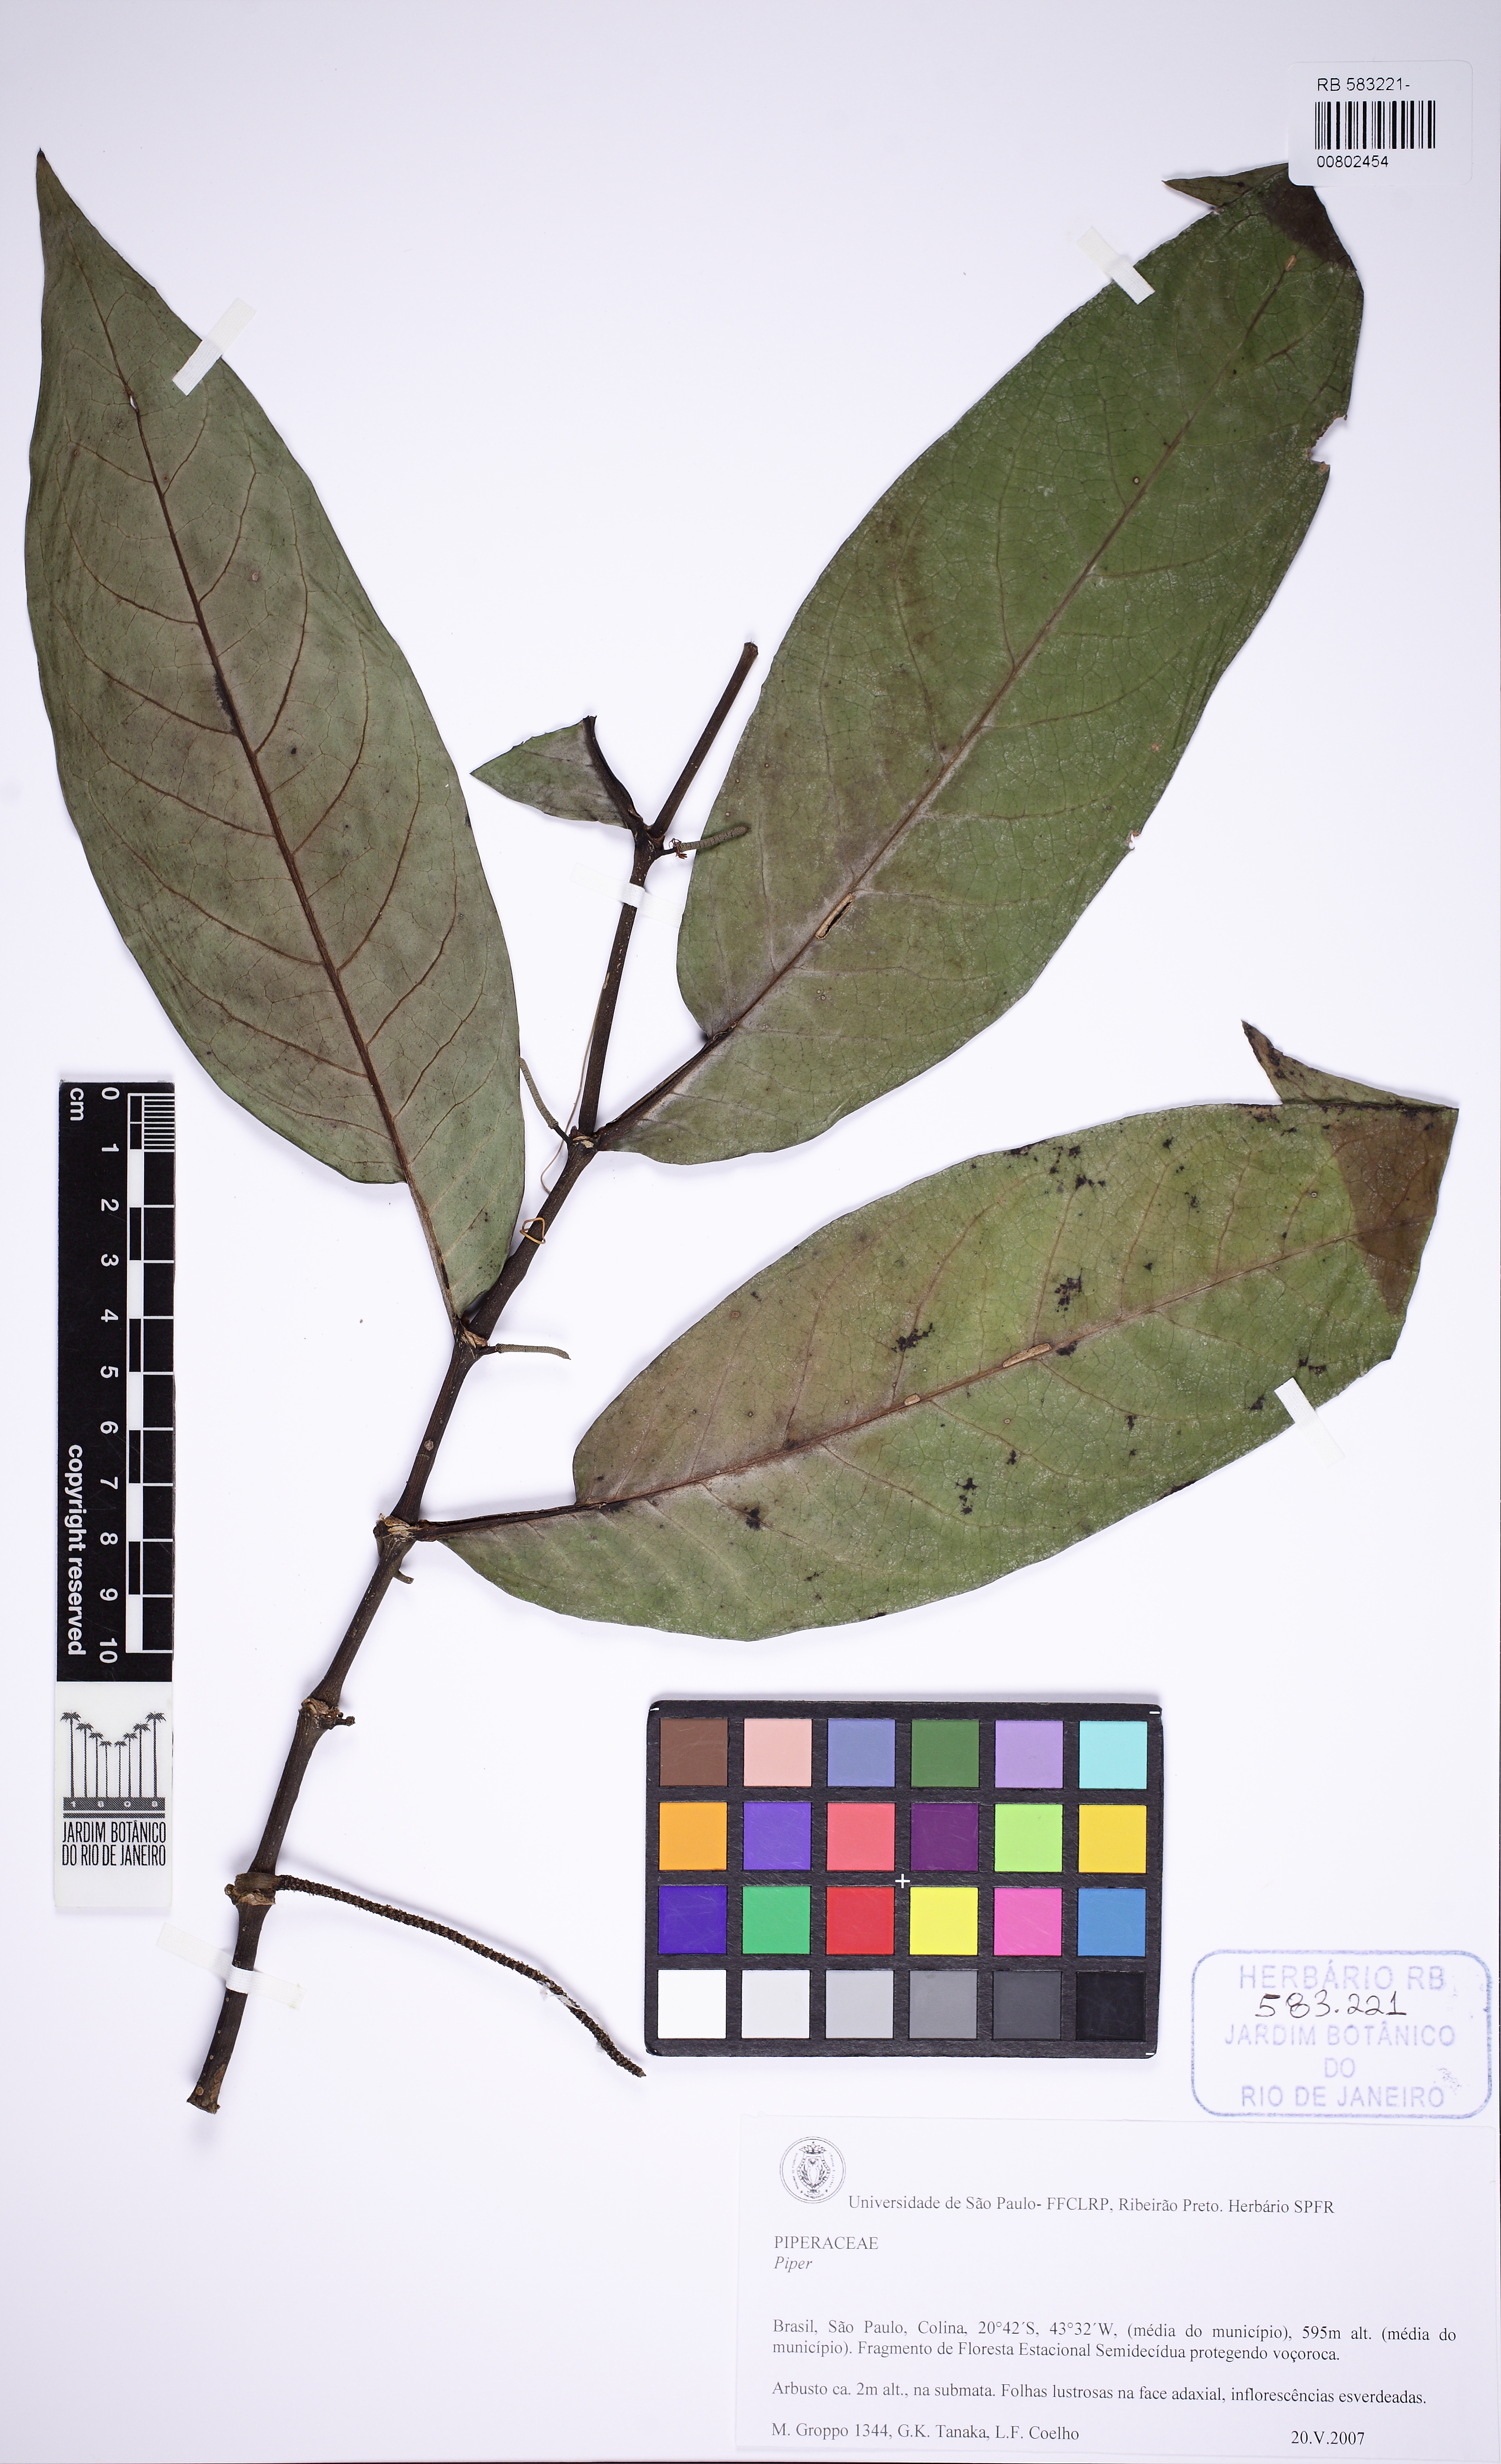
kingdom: Plantae
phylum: Tracheophyta
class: Magnoliopsida
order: Piperales
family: Piperaceae
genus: Piper
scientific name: Piper arboreum
